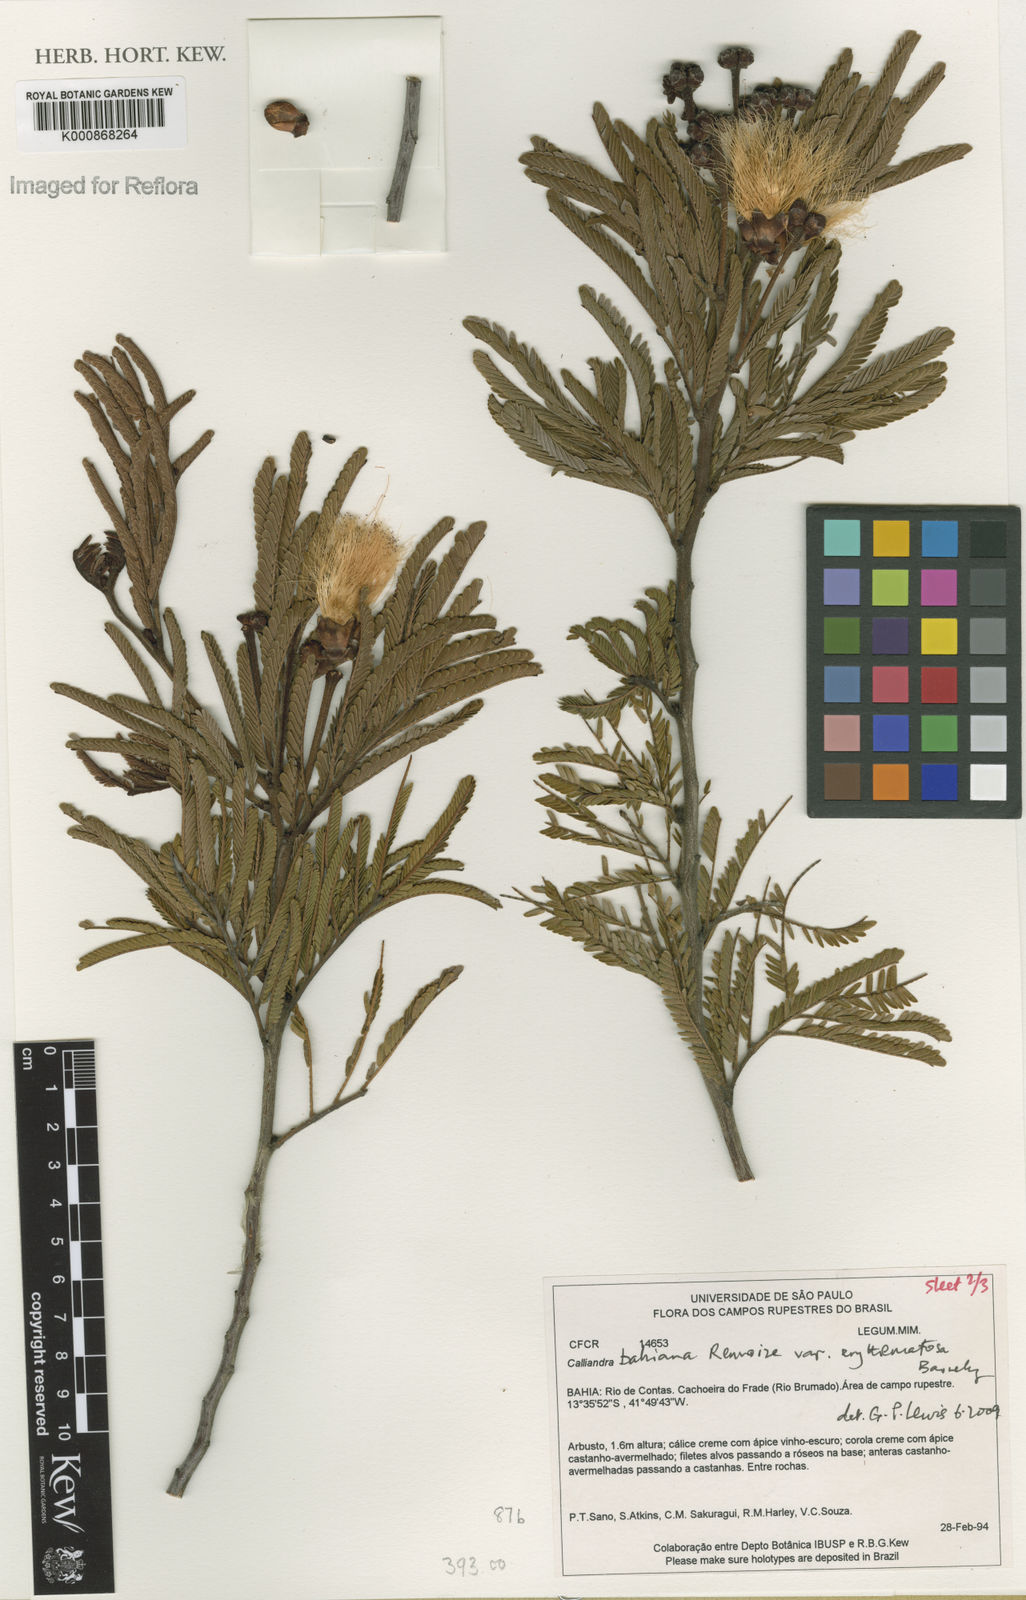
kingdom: Plantae
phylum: Tracheophyta
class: Magnoliopsida
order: Fabales
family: Fabaceae
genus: Calliandra
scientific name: Calliandra bahiana
